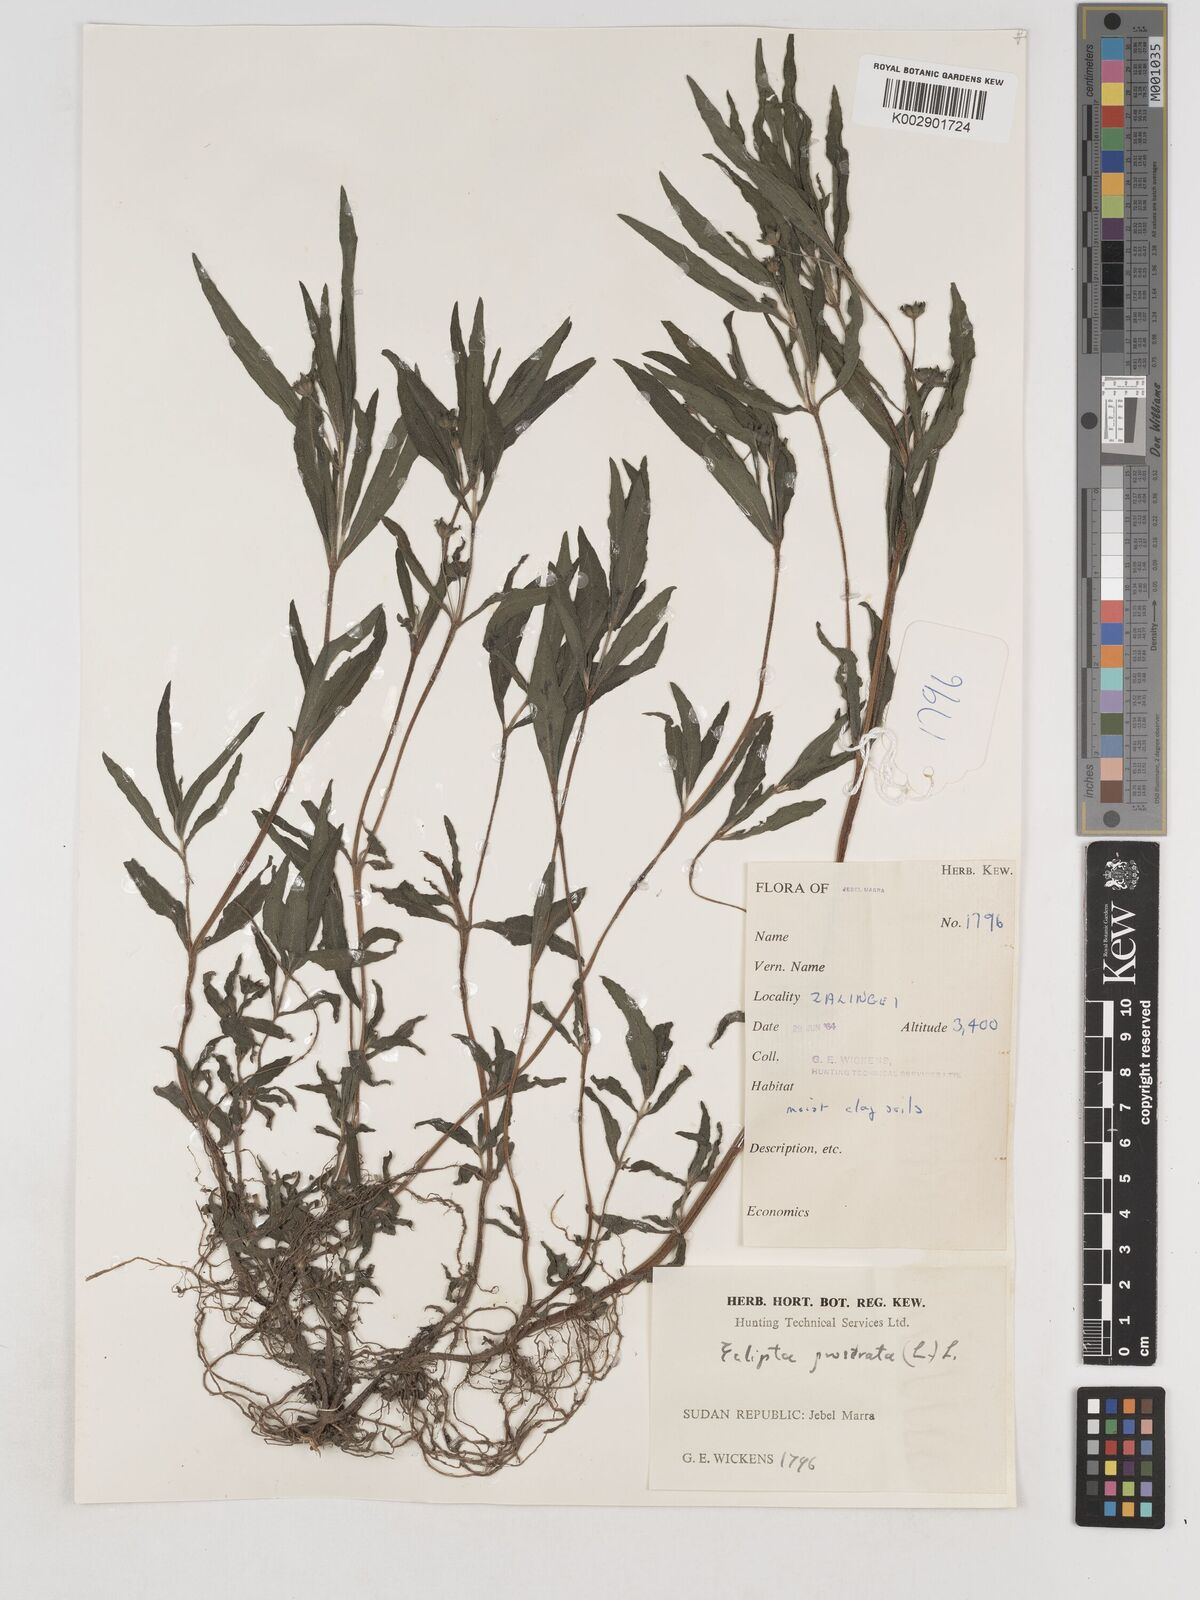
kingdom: Plantae
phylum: Tracheophyta
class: Magnoliopsida
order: Asterales
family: Asteraceae
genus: Eclipta
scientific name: Eclipta prostrata
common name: False daisy
